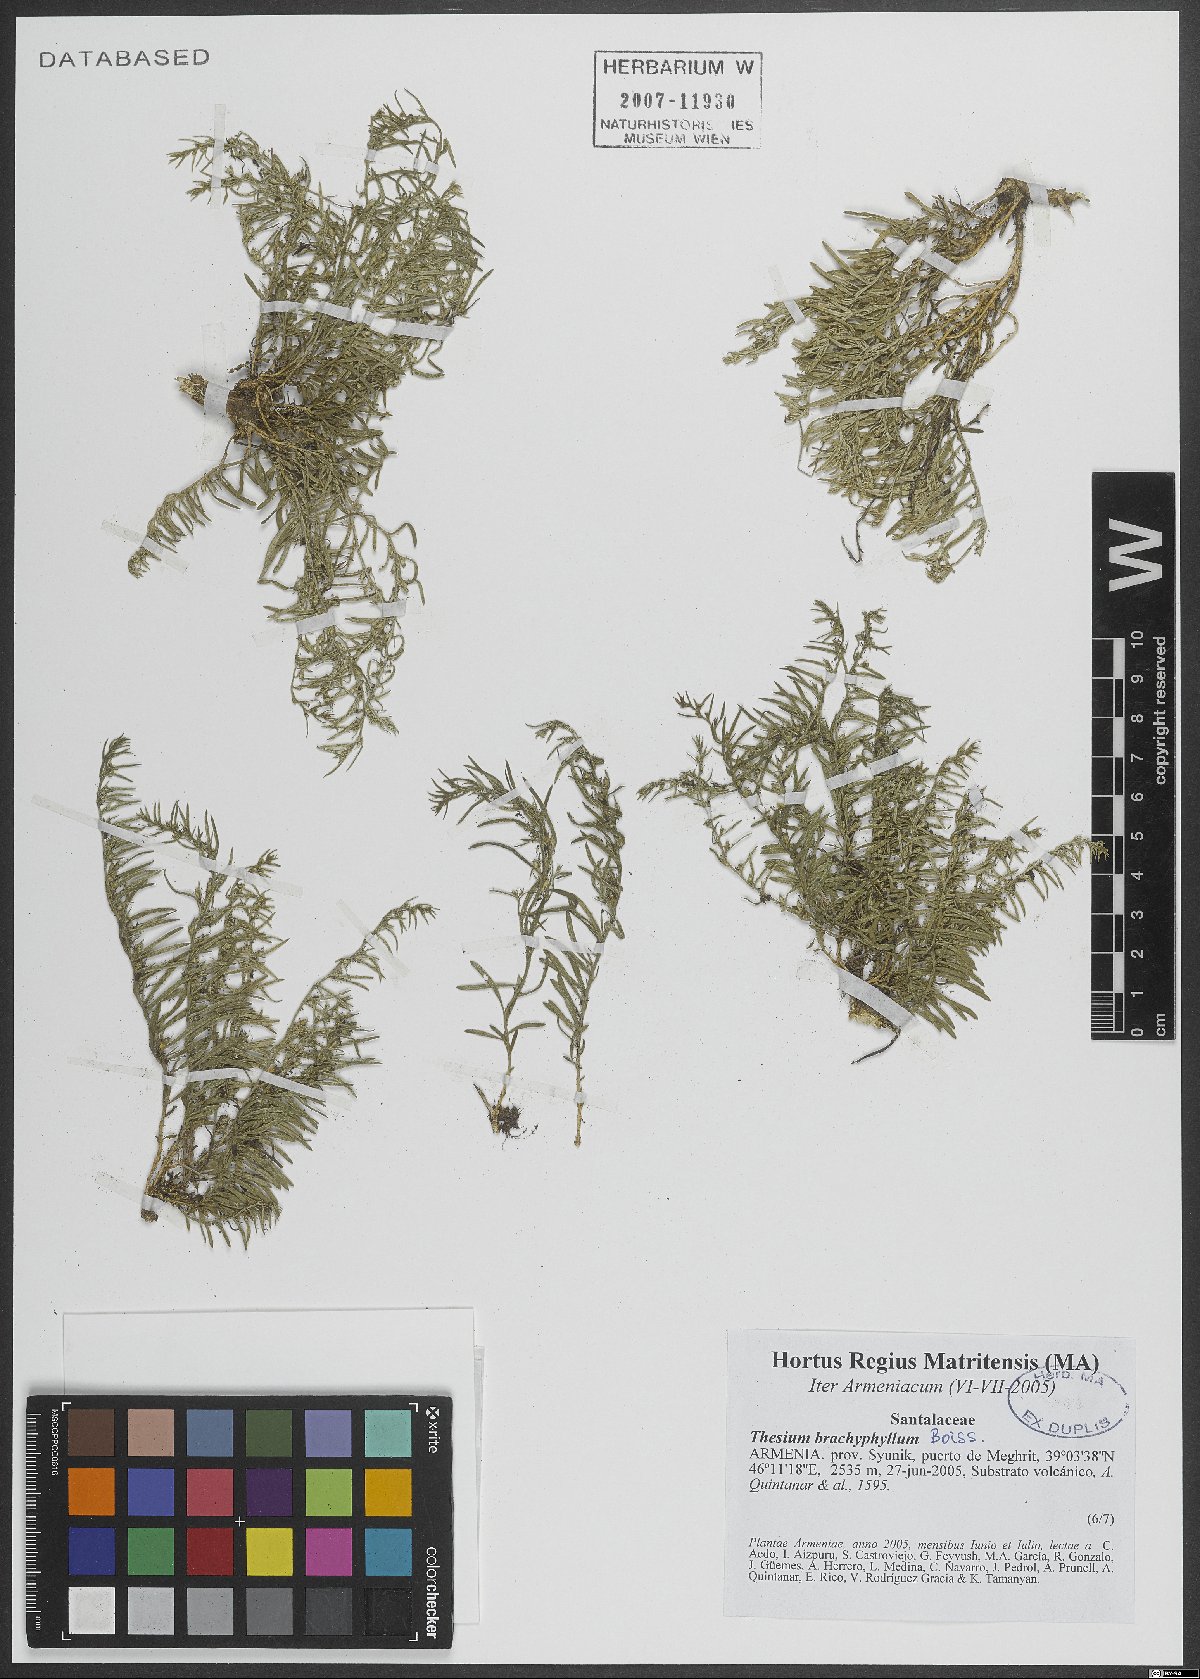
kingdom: Plantae
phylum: Tracheophyta
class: Magnoliopsida
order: Santalales
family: Thesiaceae
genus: Thesium
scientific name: Thesium procumbens
